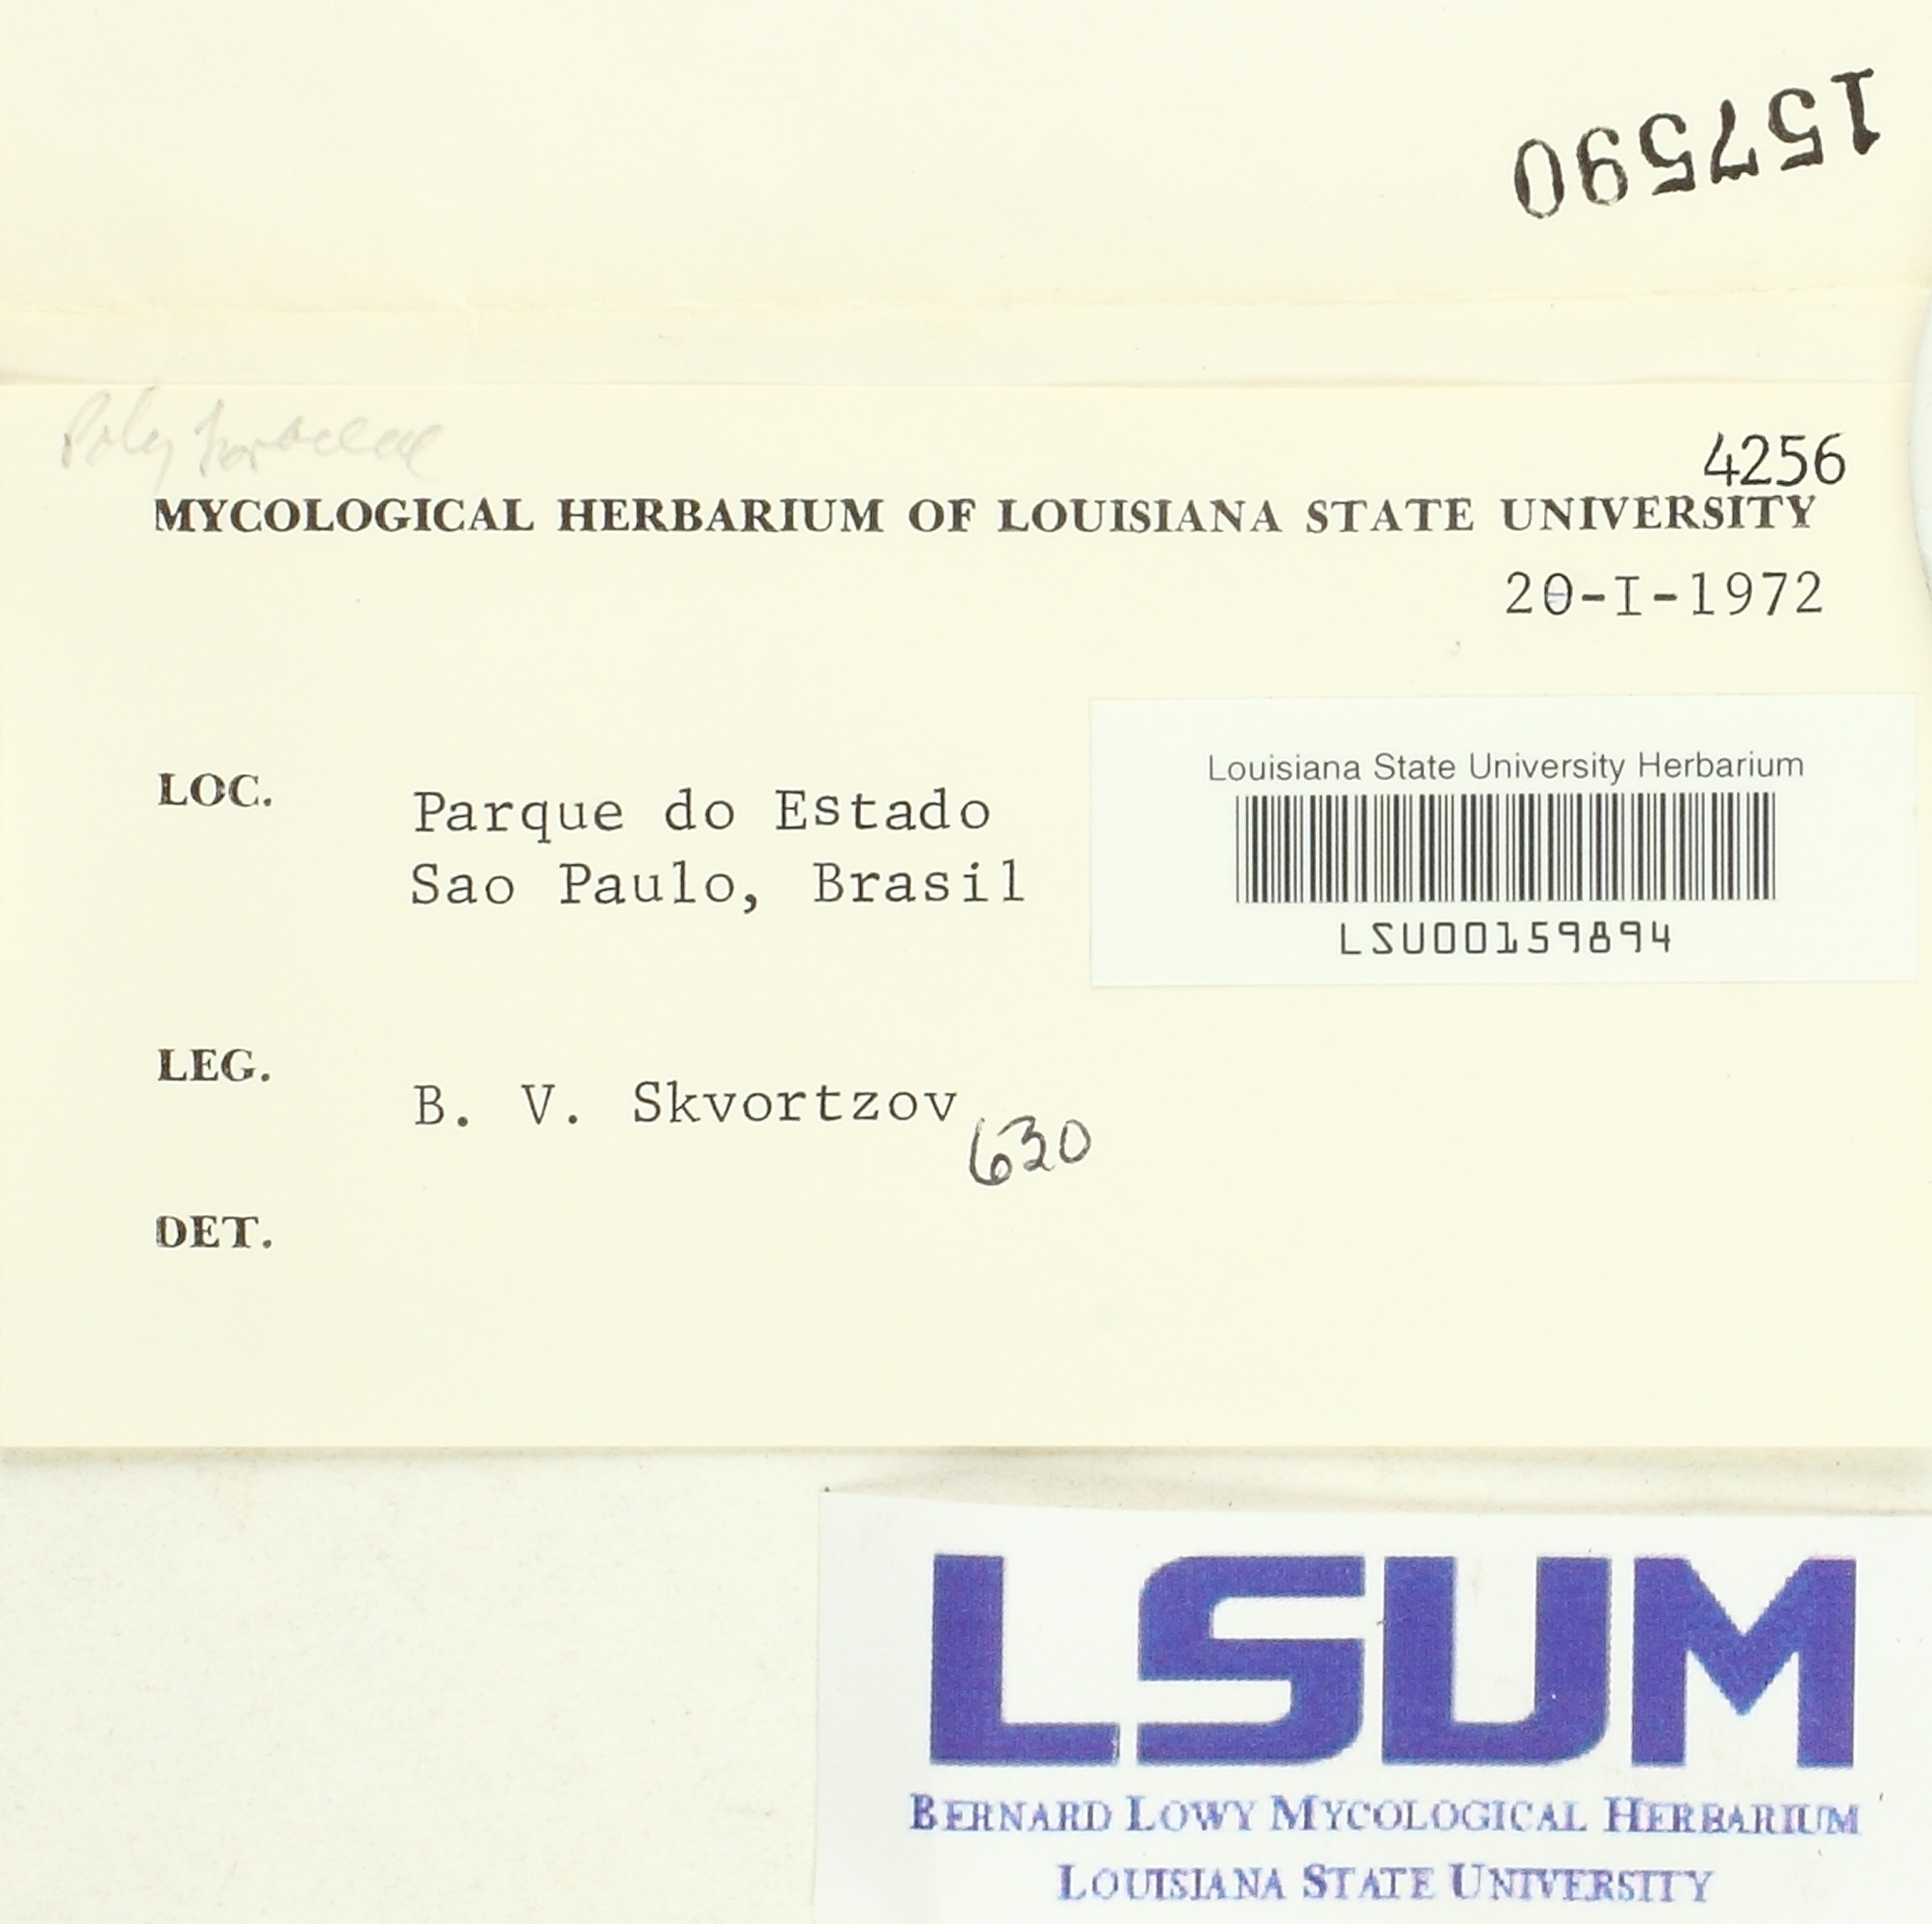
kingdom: Fungi
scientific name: Fungi
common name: Fungi
